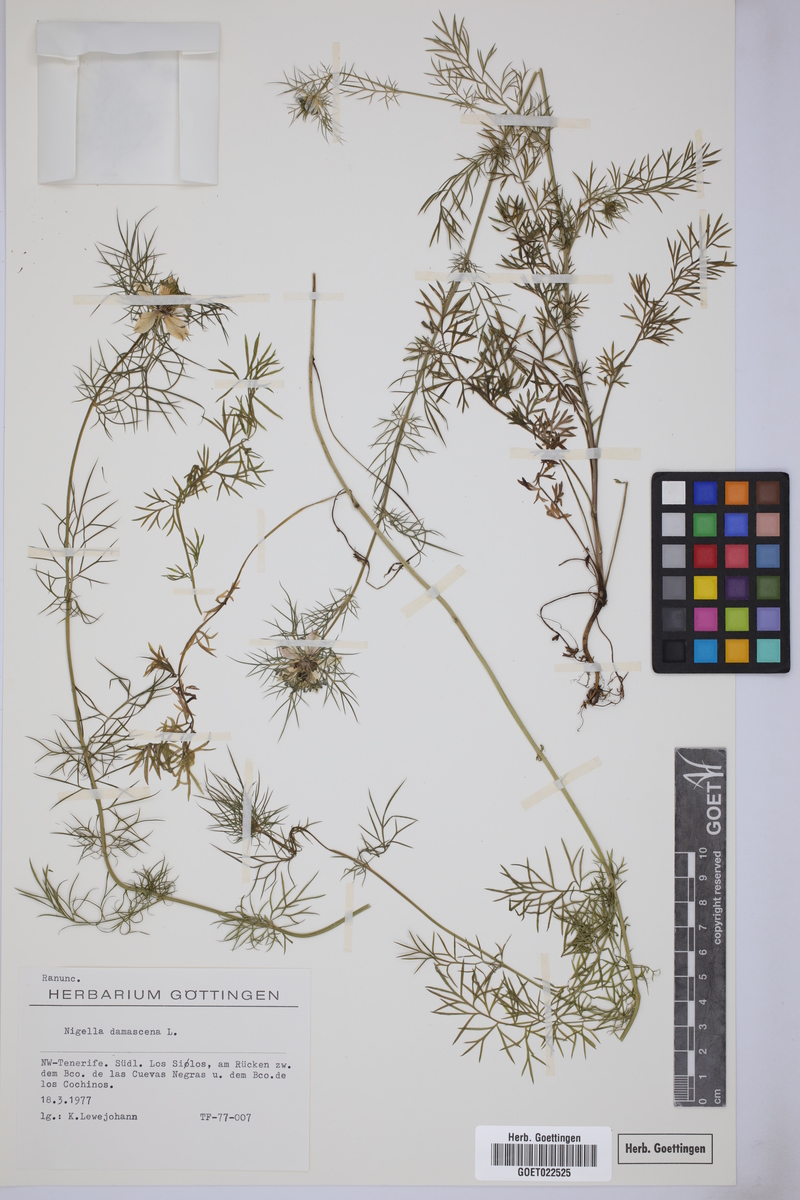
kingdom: Plantae
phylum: Tracheophyta
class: Magnoliopsida
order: Ranunculales
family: Ranunculaceae
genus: Nigella
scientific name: Nigella damascena
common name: Love-in-a-mist
